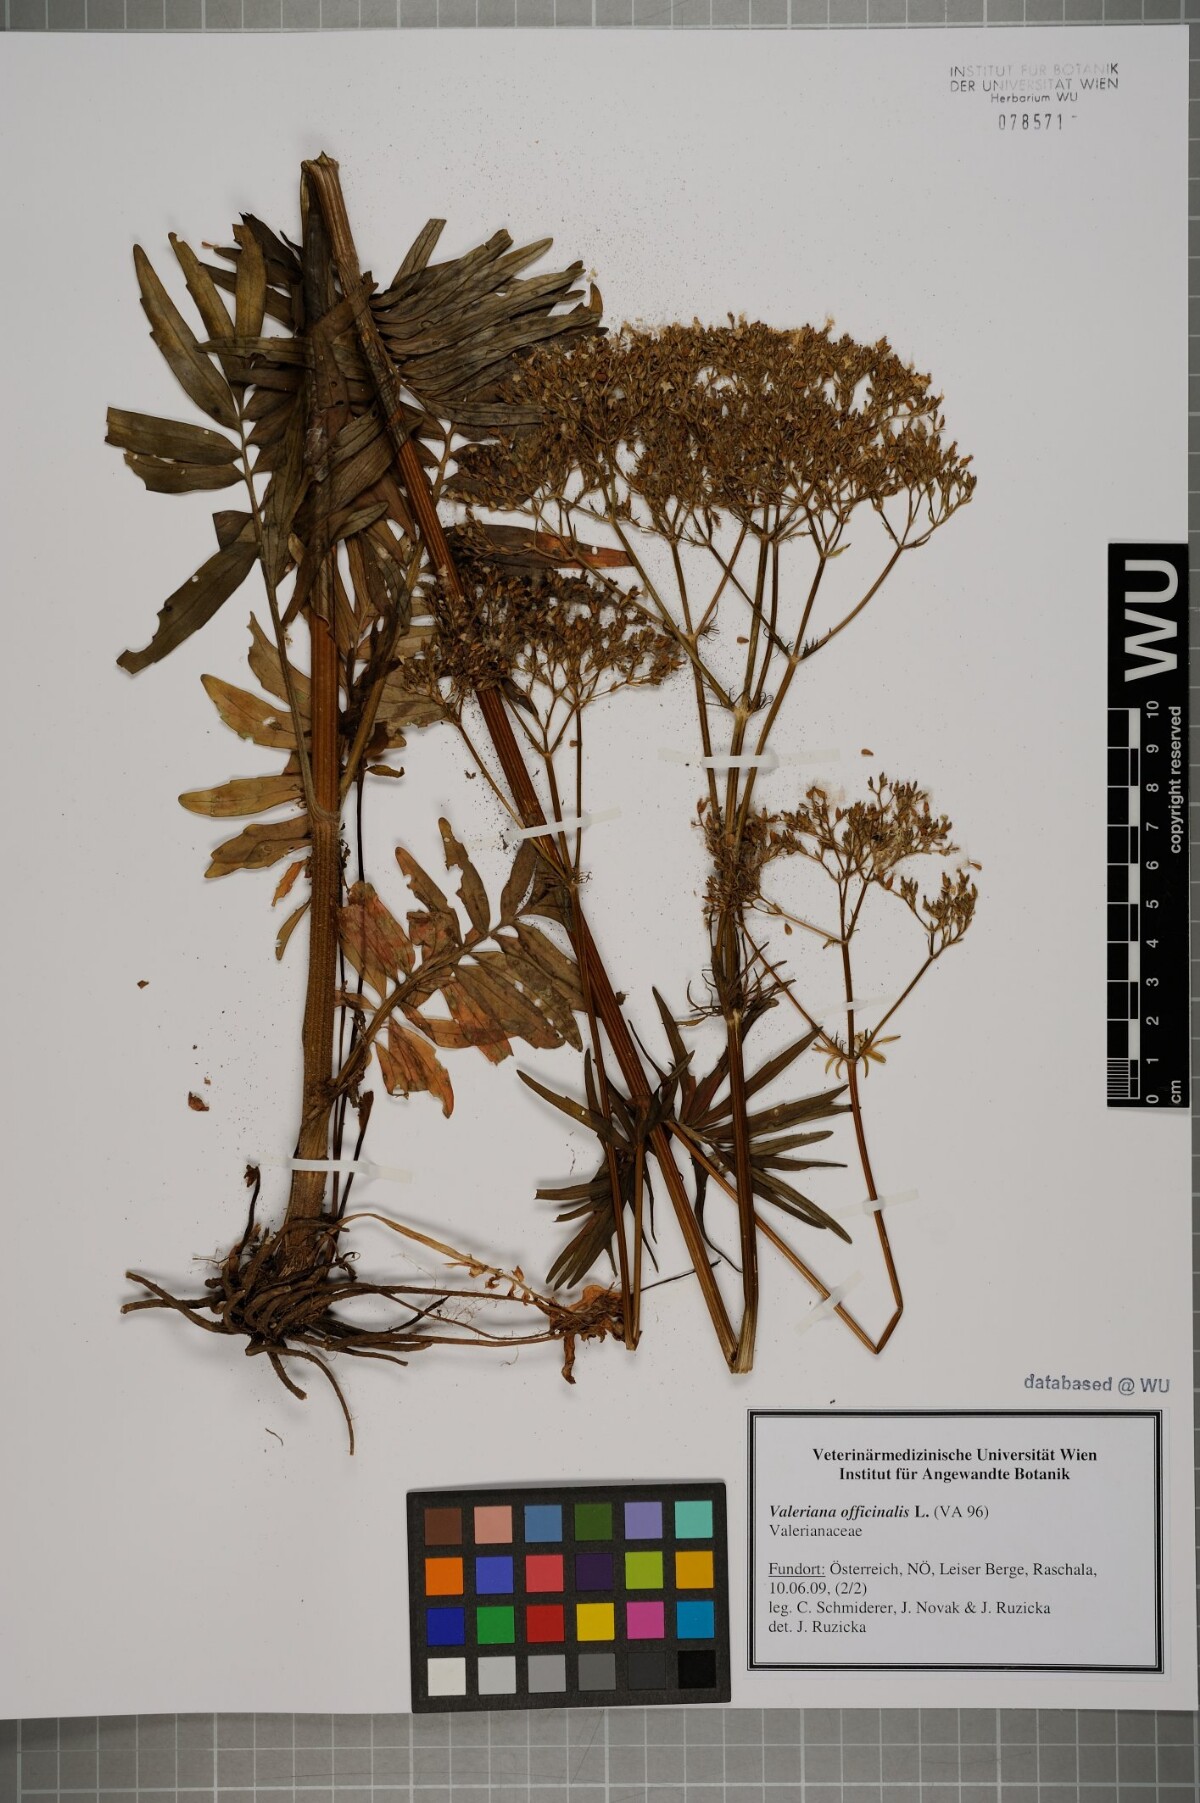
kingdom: Plantae
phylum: Tracheophyta
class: Magnoliopsida
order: Dipsacales
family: Caprifoliaceae
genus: Valeriana
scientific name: Valeriana officinalis
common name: Common valerian
